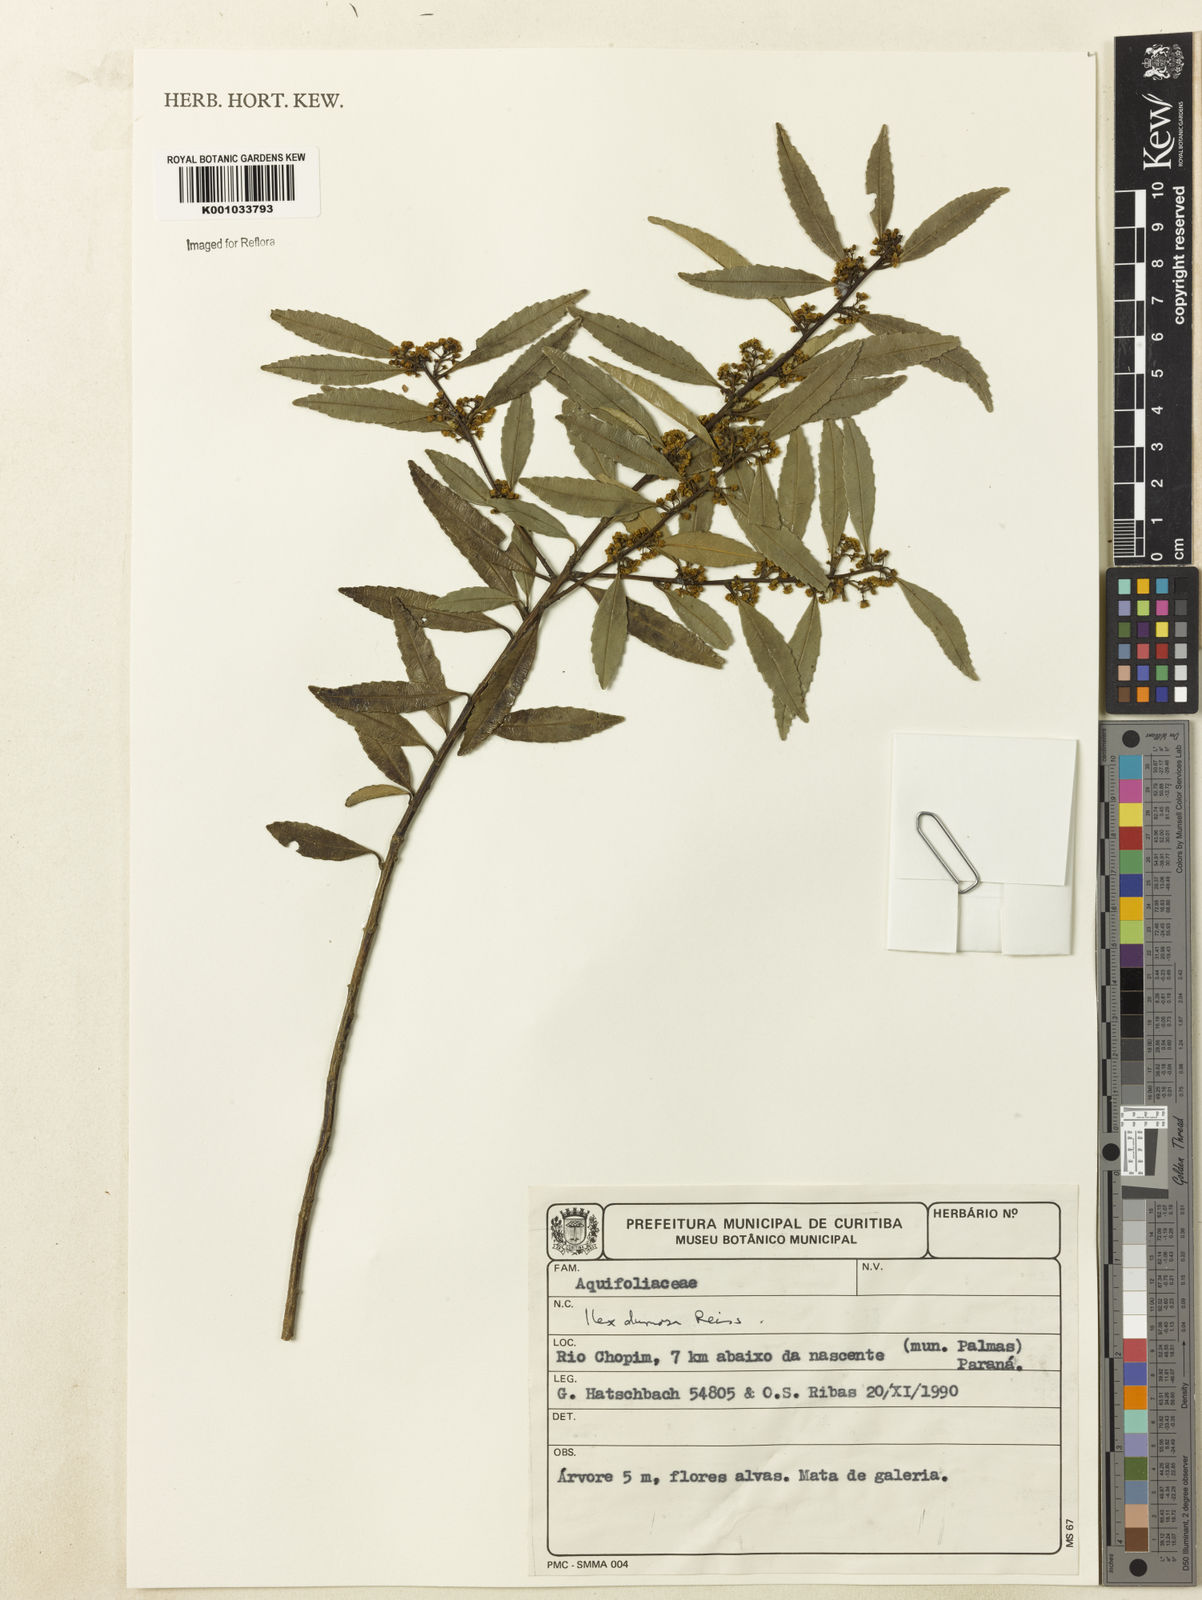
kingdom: Plantae
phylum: Tracheophyta
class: Magnoliopsida
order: Aquifoliales
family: Aquifoliaceae
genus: Ilex
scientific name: Ilex dumosa
